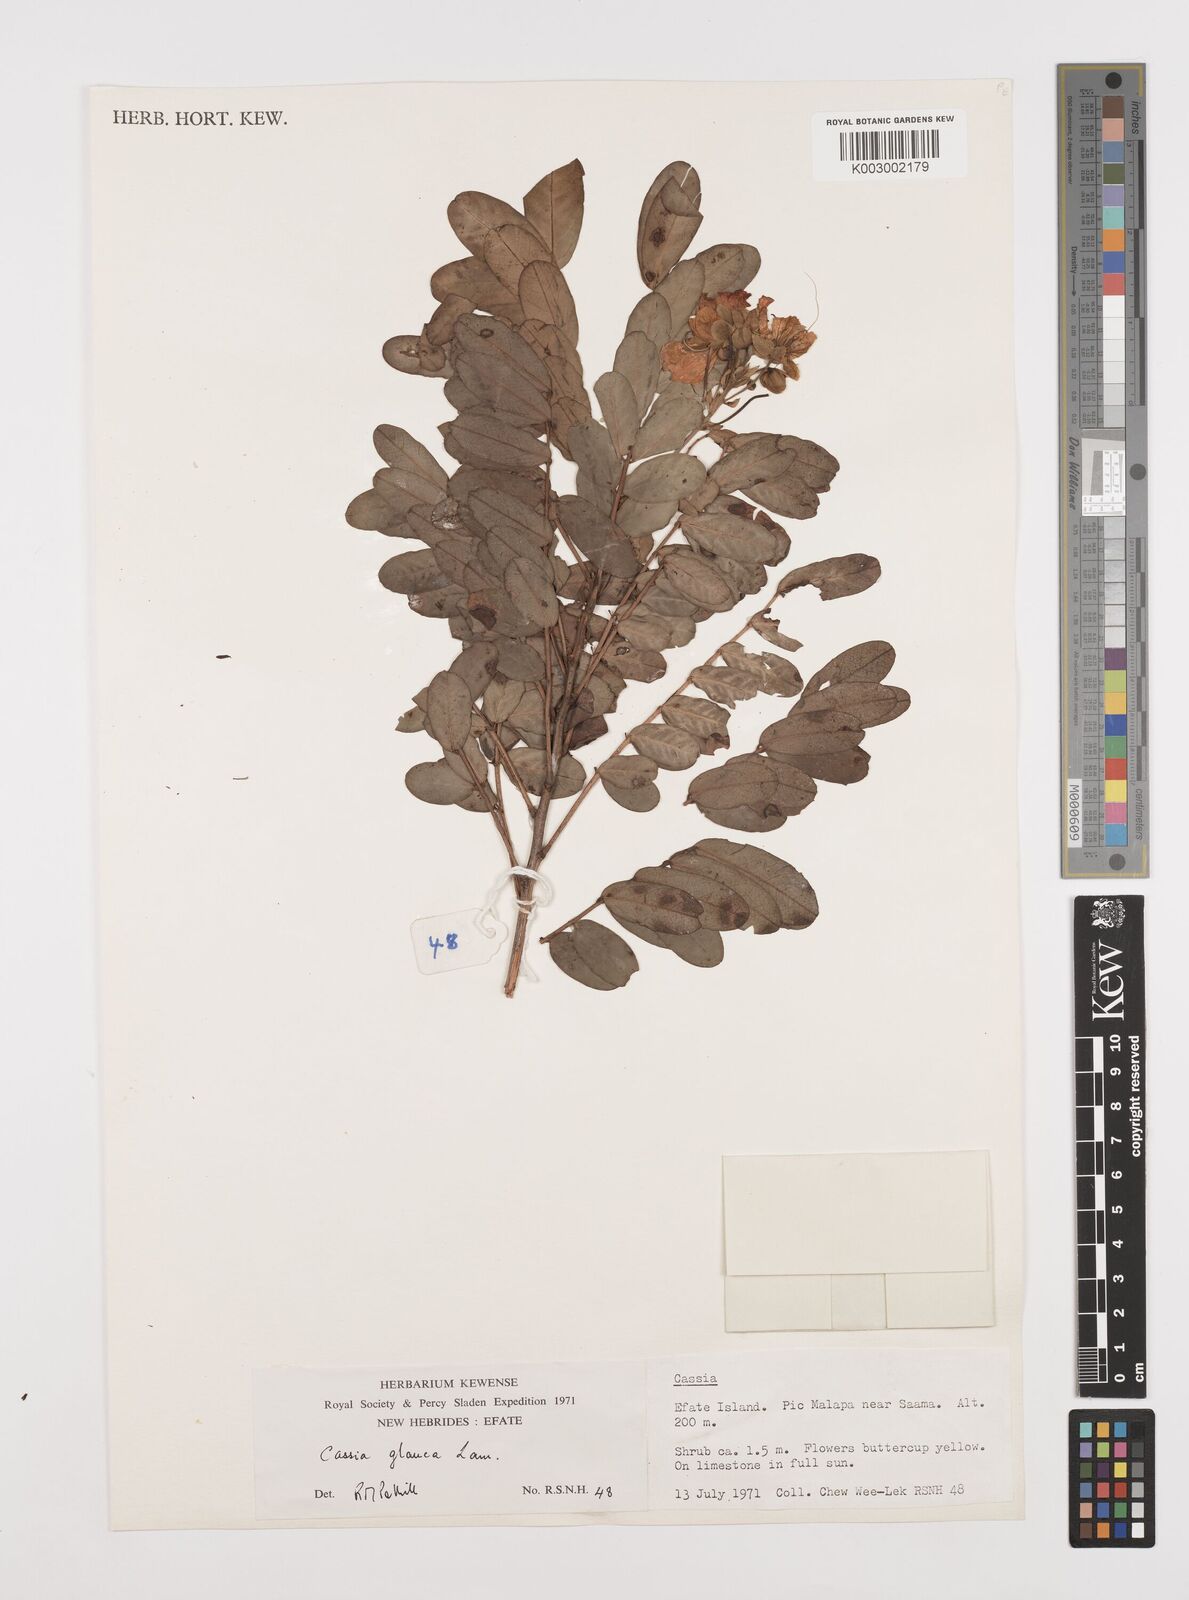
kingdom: Plantae
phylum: Tracheophyta
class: Magnoliopsida
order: Fabales
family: Fabaceae
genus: Senna
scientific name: Senna surattensis
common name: Glossy shower
